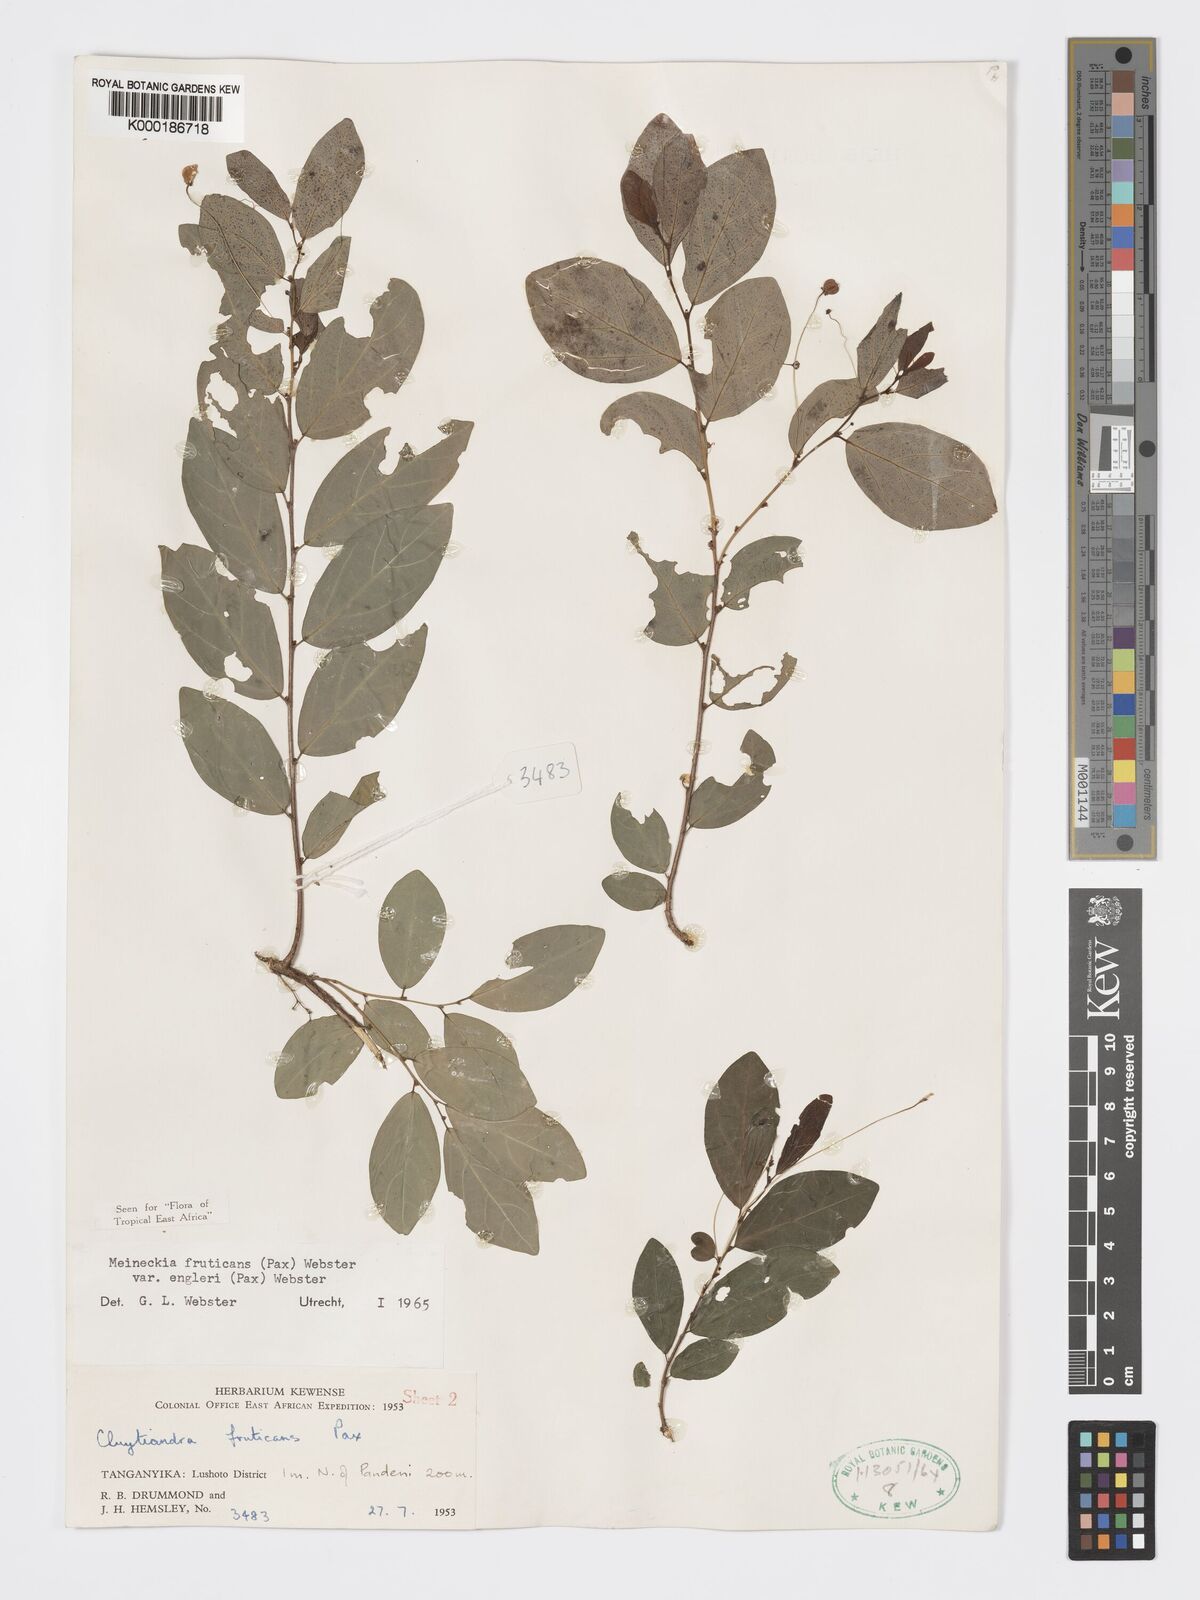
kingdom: Plantae
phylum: Tracheophyta
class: Magnoliopsida
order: Malpighiales
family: Phyllanthaceae
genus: Meineckia
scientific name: Meineckia fruticans
